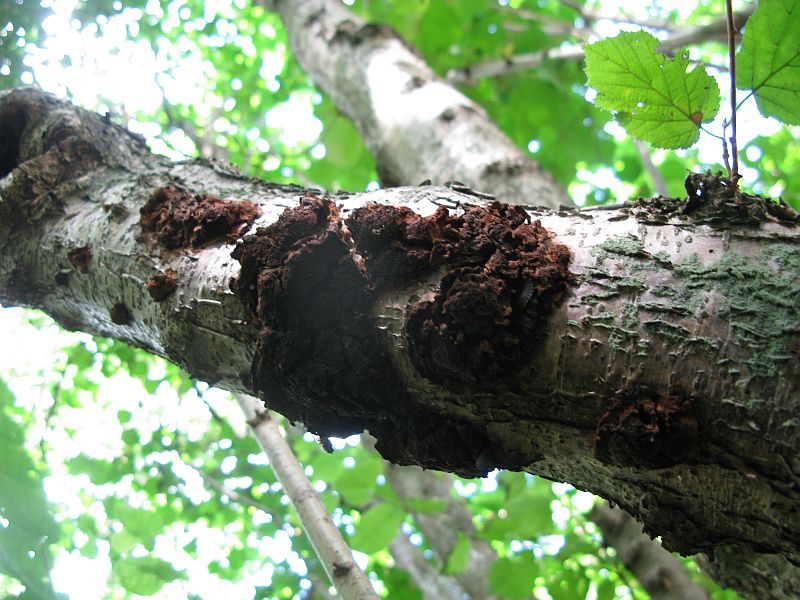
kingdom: Fungi
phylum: Basidiomycota
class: Agaricomycetes
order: Hymenochaetales
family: Hymenochaetaceae
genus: Xanthoporia
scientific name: Xanthoporia radiata
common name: elle-spejlporesvamp
